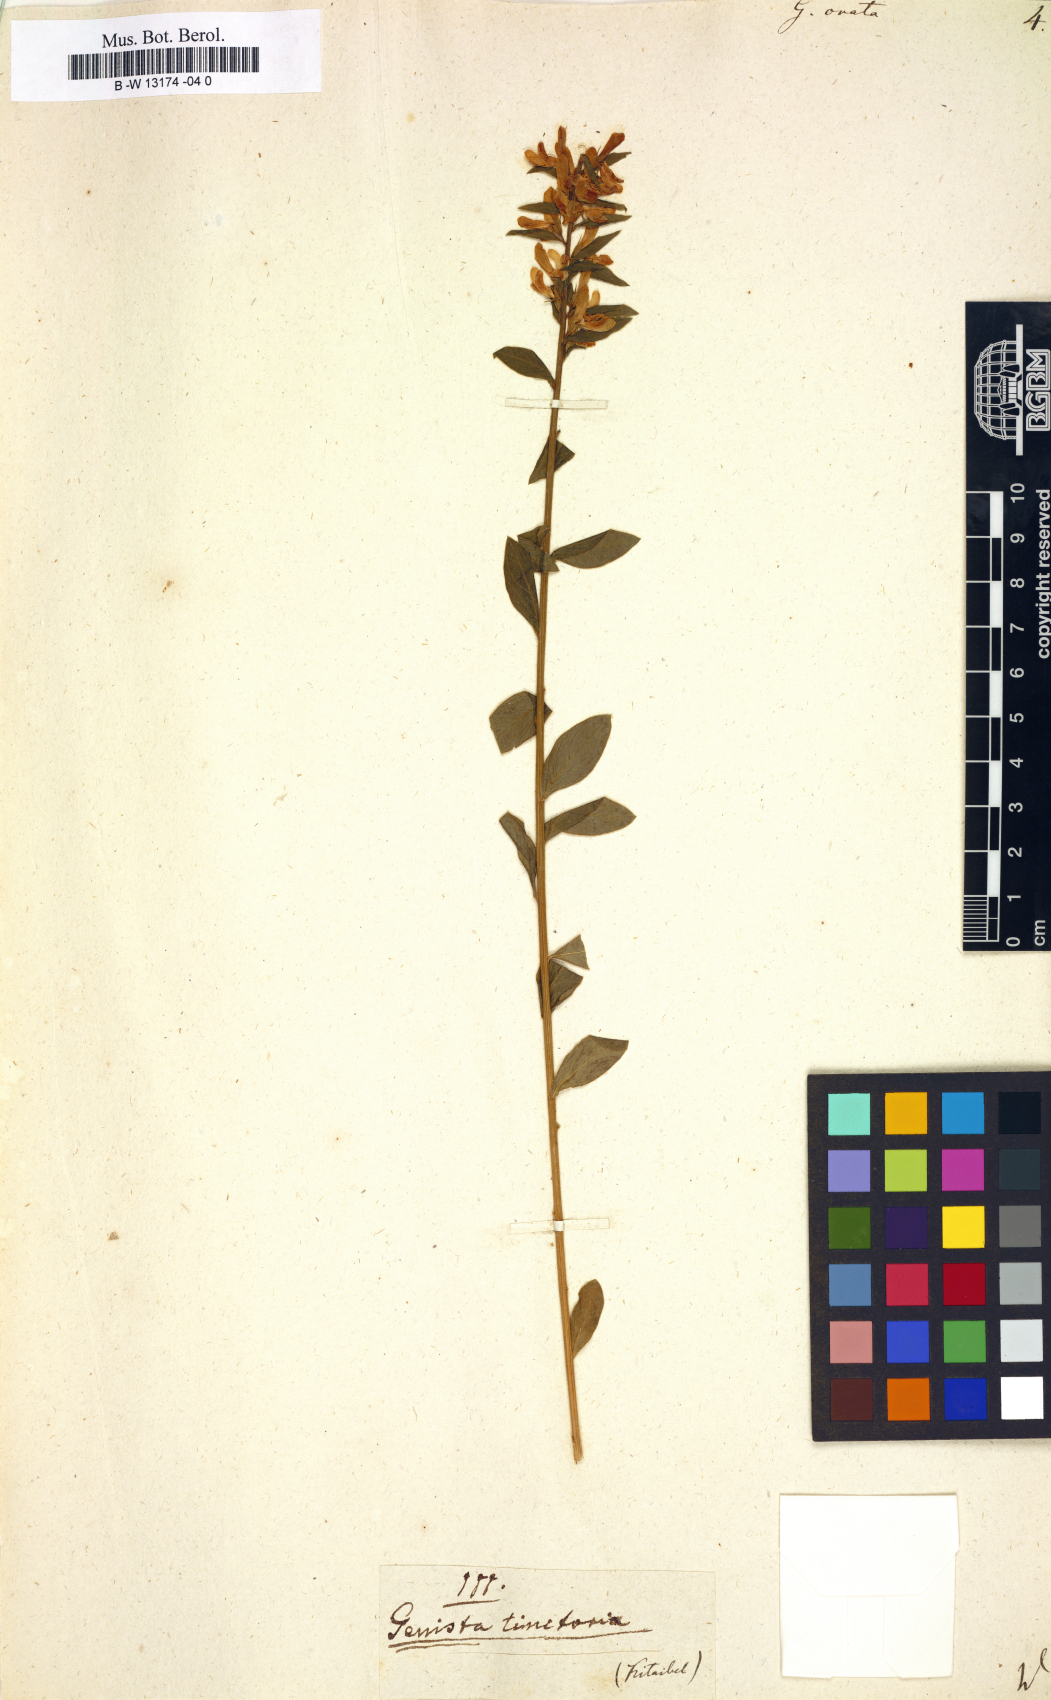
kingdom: Plantae
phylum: Tracheophyta
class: Magnoliopsida
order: Fabales
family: Fabaceae
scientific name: Fabaceae
